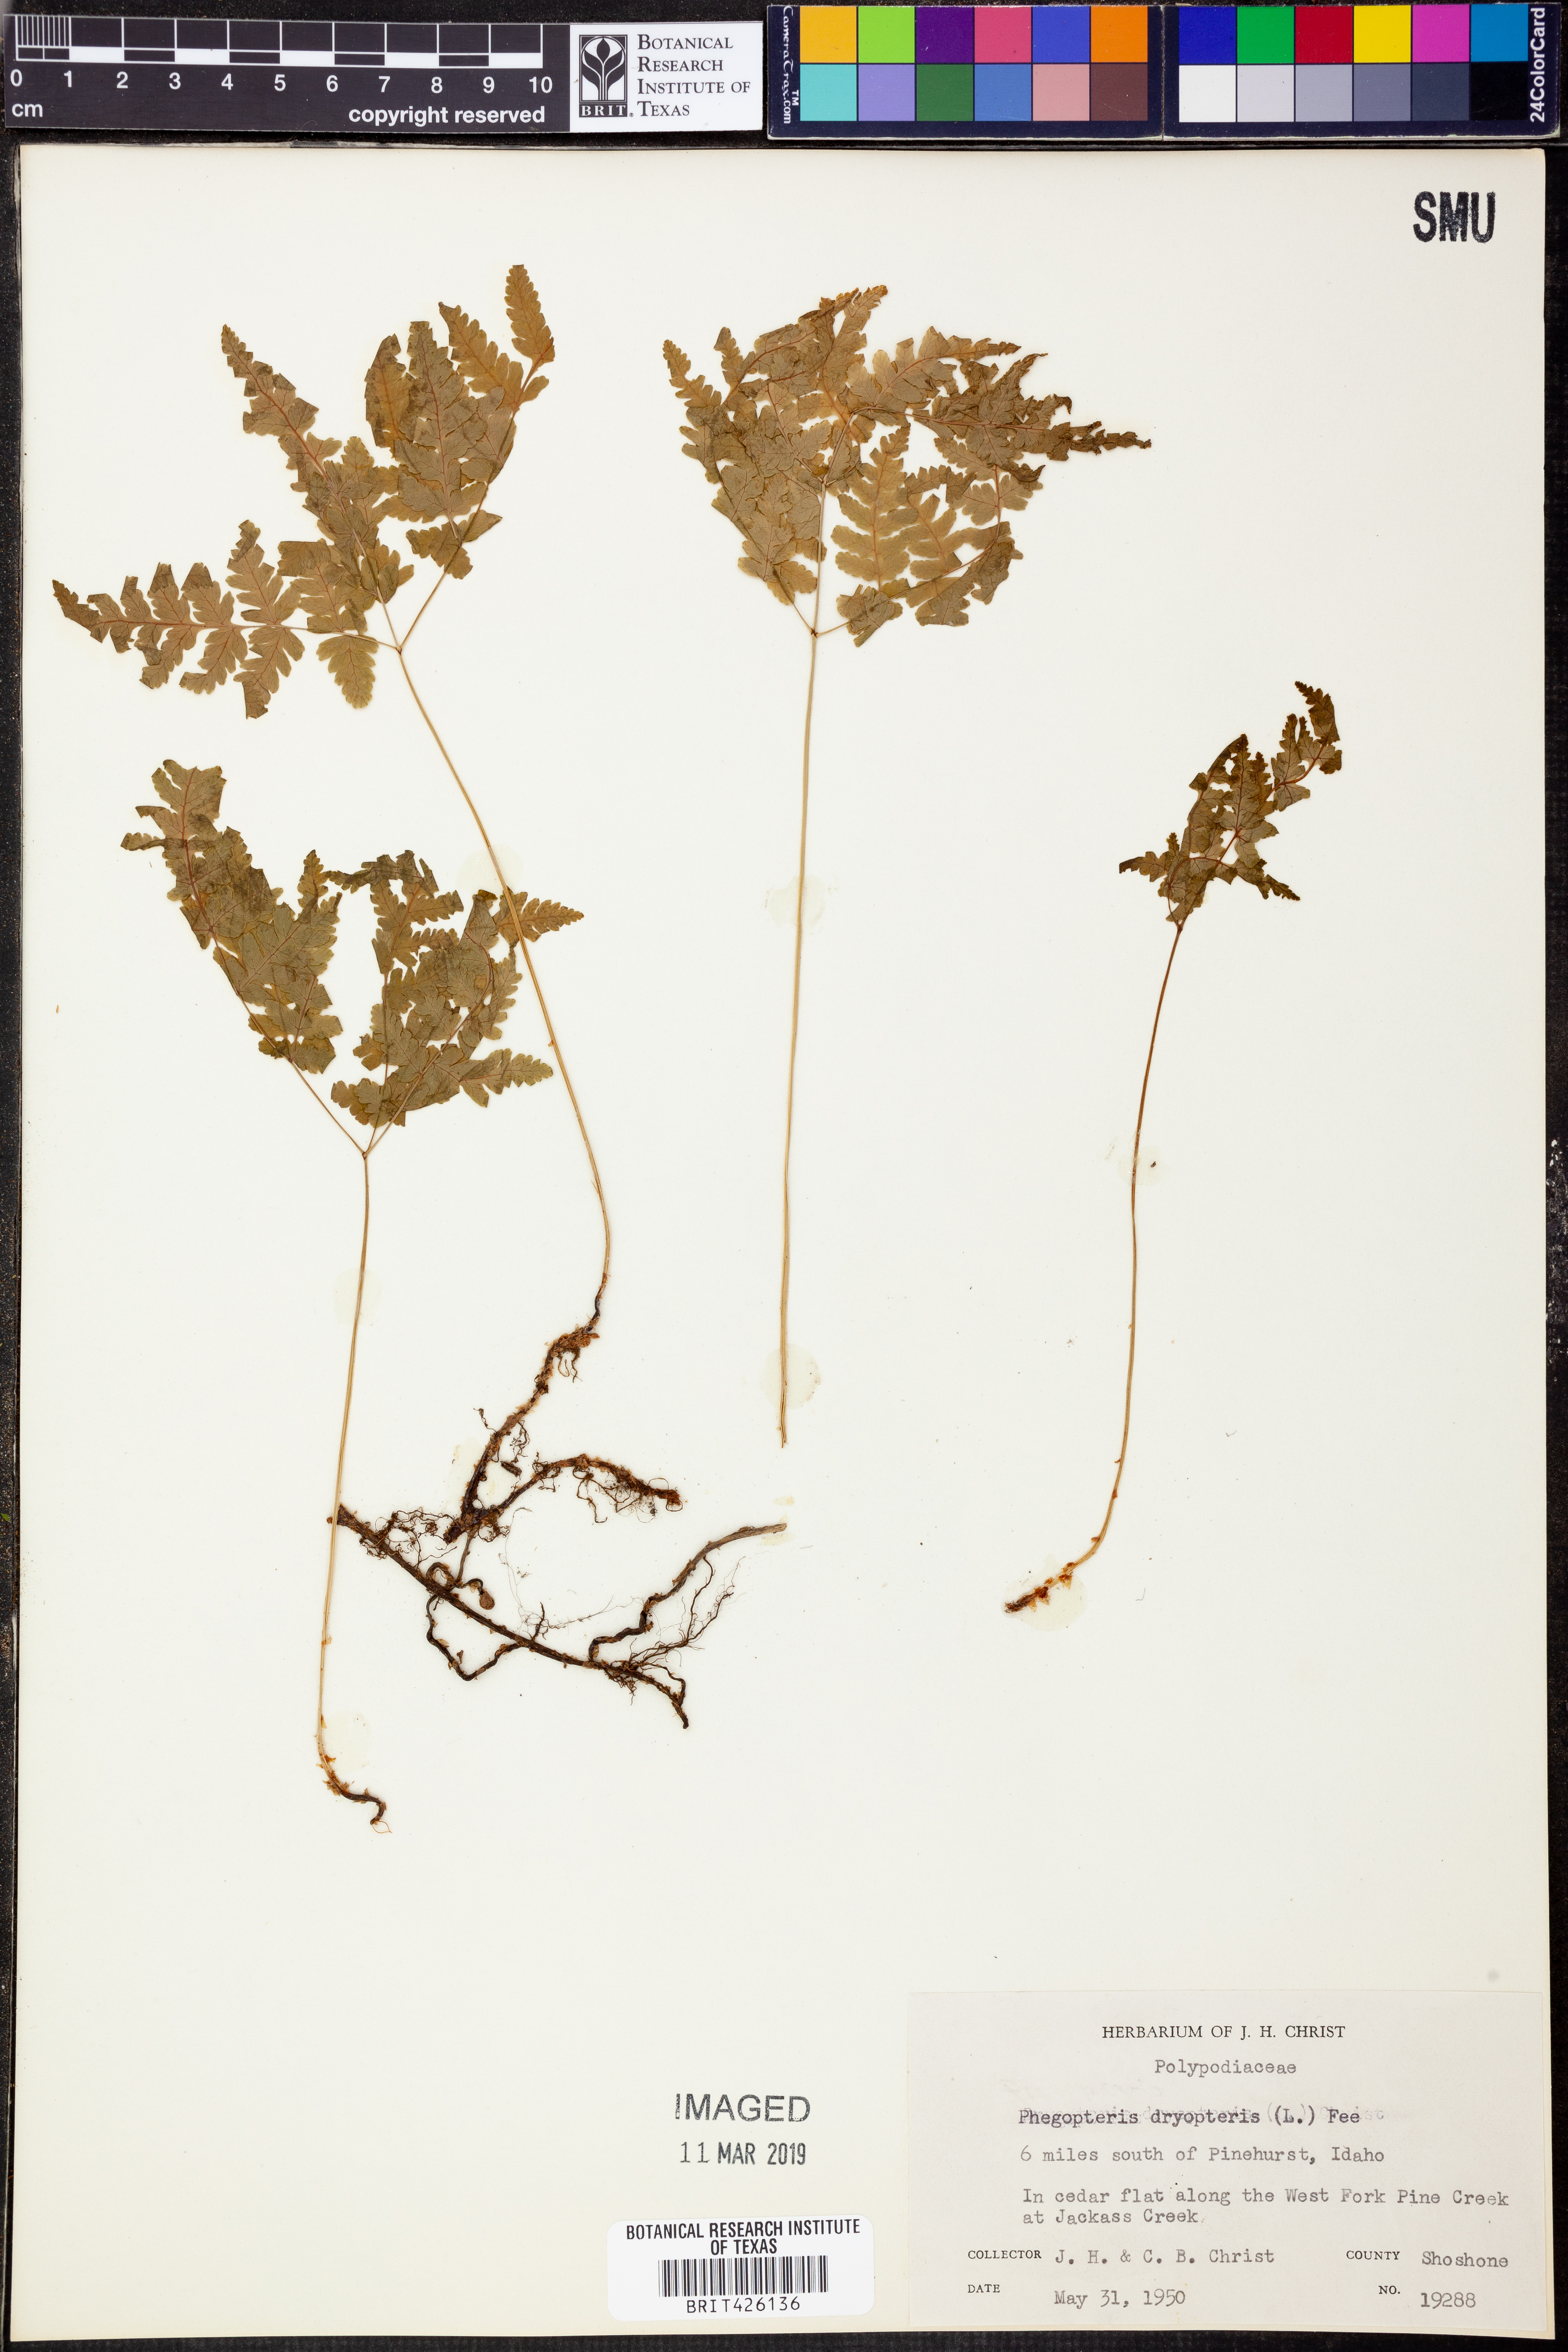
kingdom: Plantae
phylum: Tracheophyta
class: Polypodiopsida
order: Polypodiales
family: Cystopteridaceae
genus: Gymnocarpium
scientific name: Gymnocarpium dryopteris
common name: Oak fern
